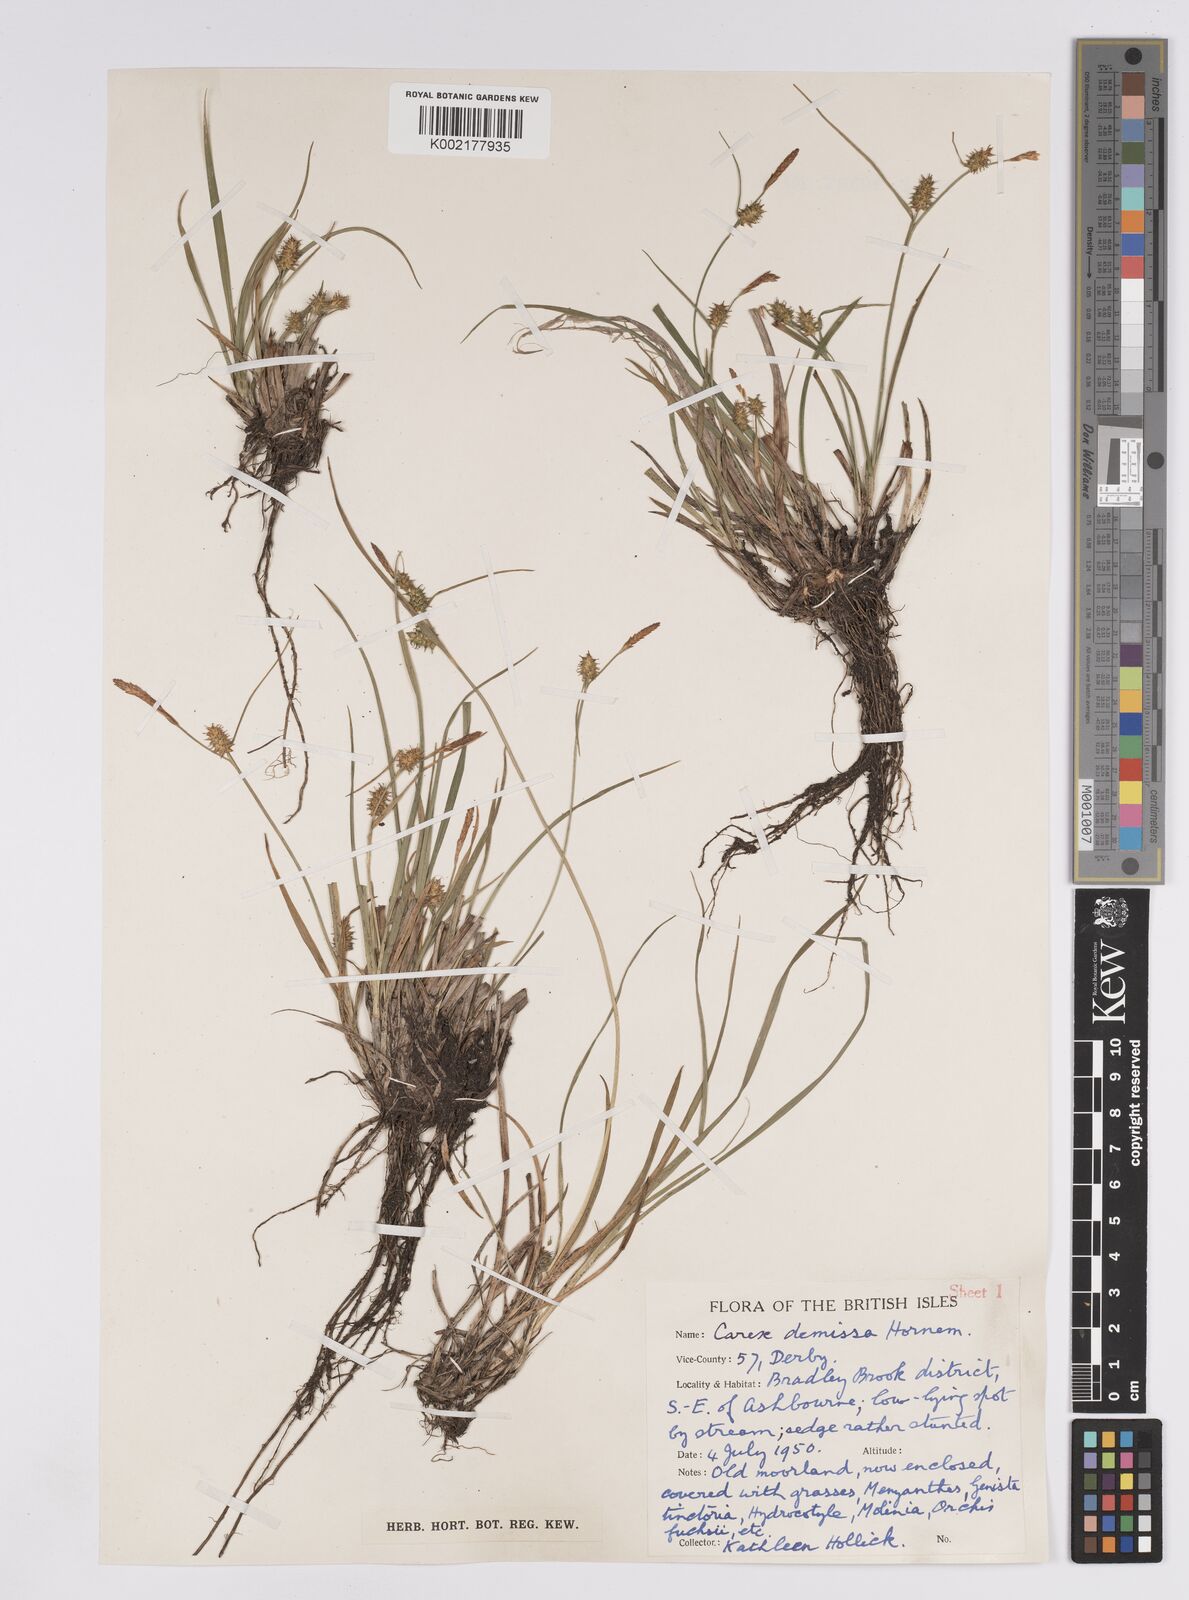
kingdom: Plantae
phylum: Tracheophyta
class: Liliopsida
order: Poales
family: Cyperaceae
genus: Carex
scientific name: Carex demissa
